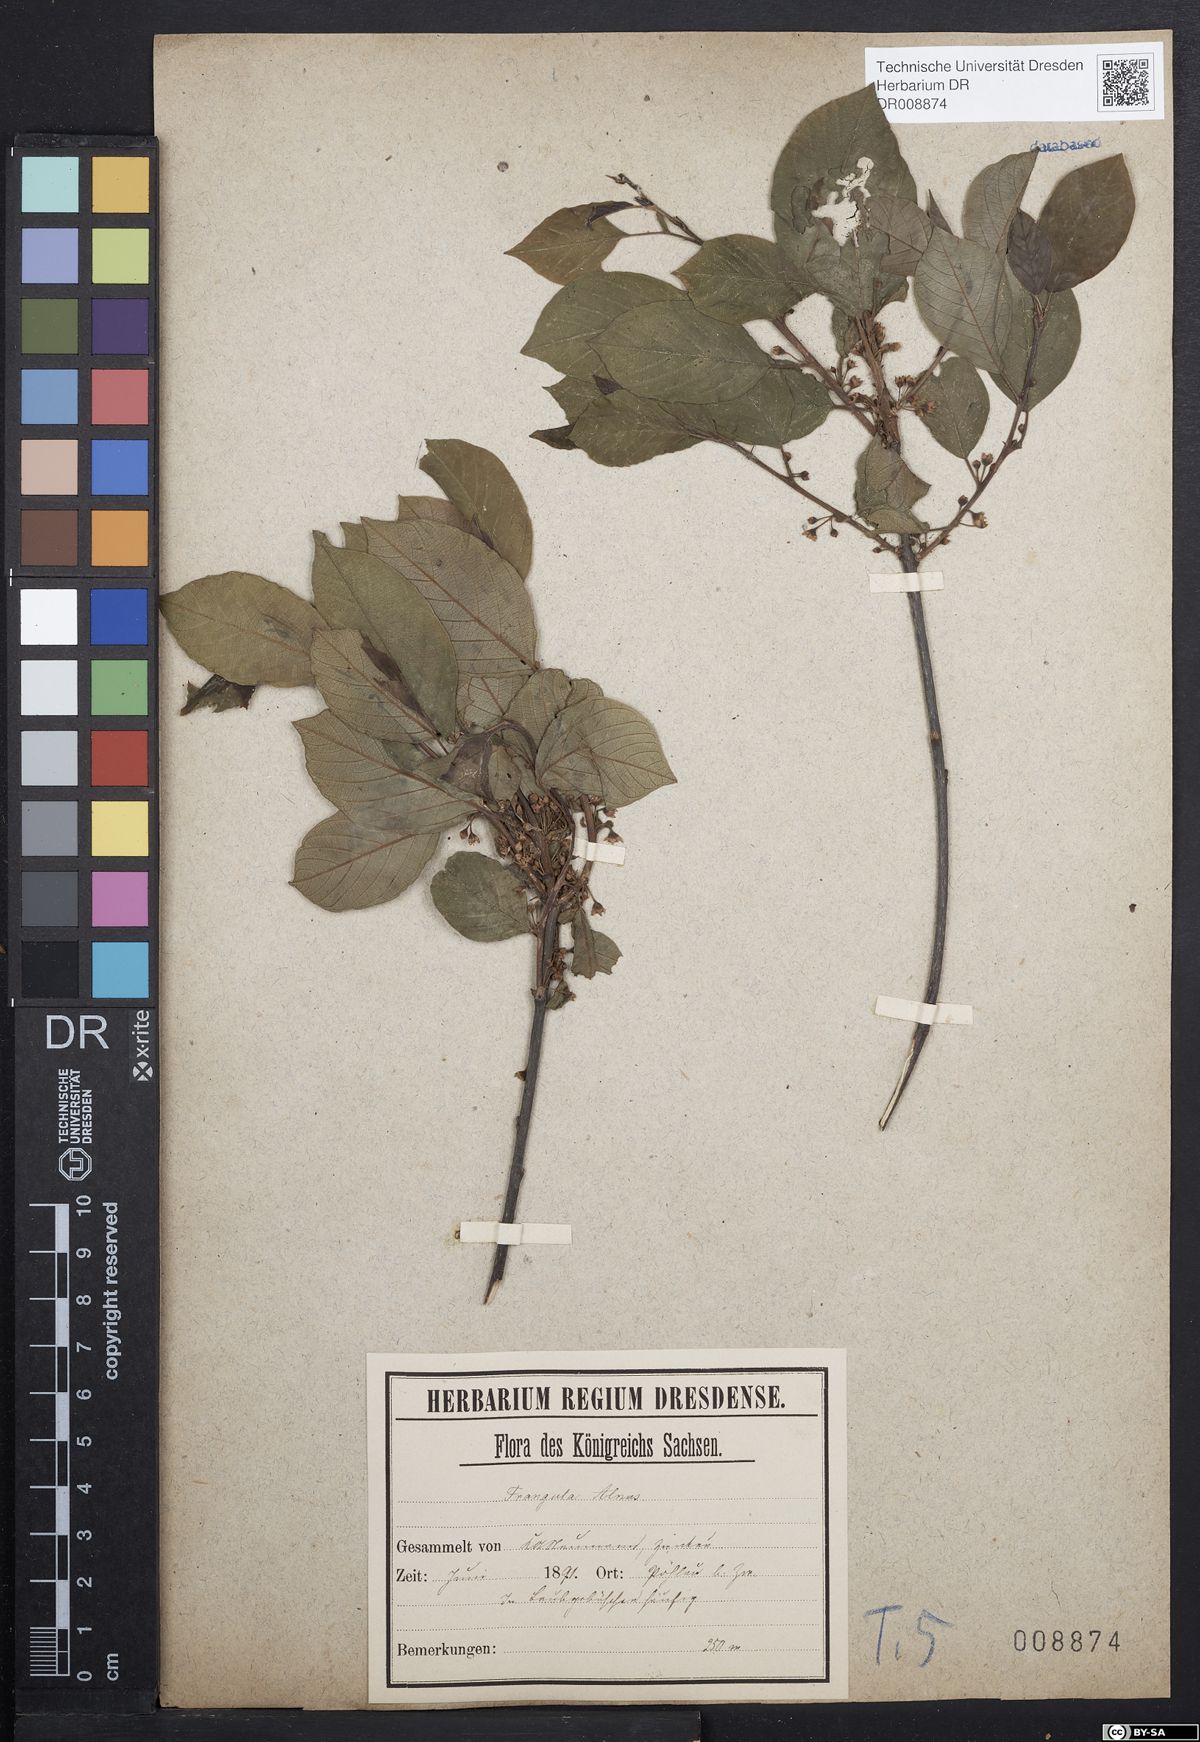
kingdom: Plantae
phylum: Tracheophyta
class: Magnoliopsida
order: Rosales
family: Rhamnaceae
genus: Frangula
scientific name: Frangula alnus
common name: Alder buckthorn
